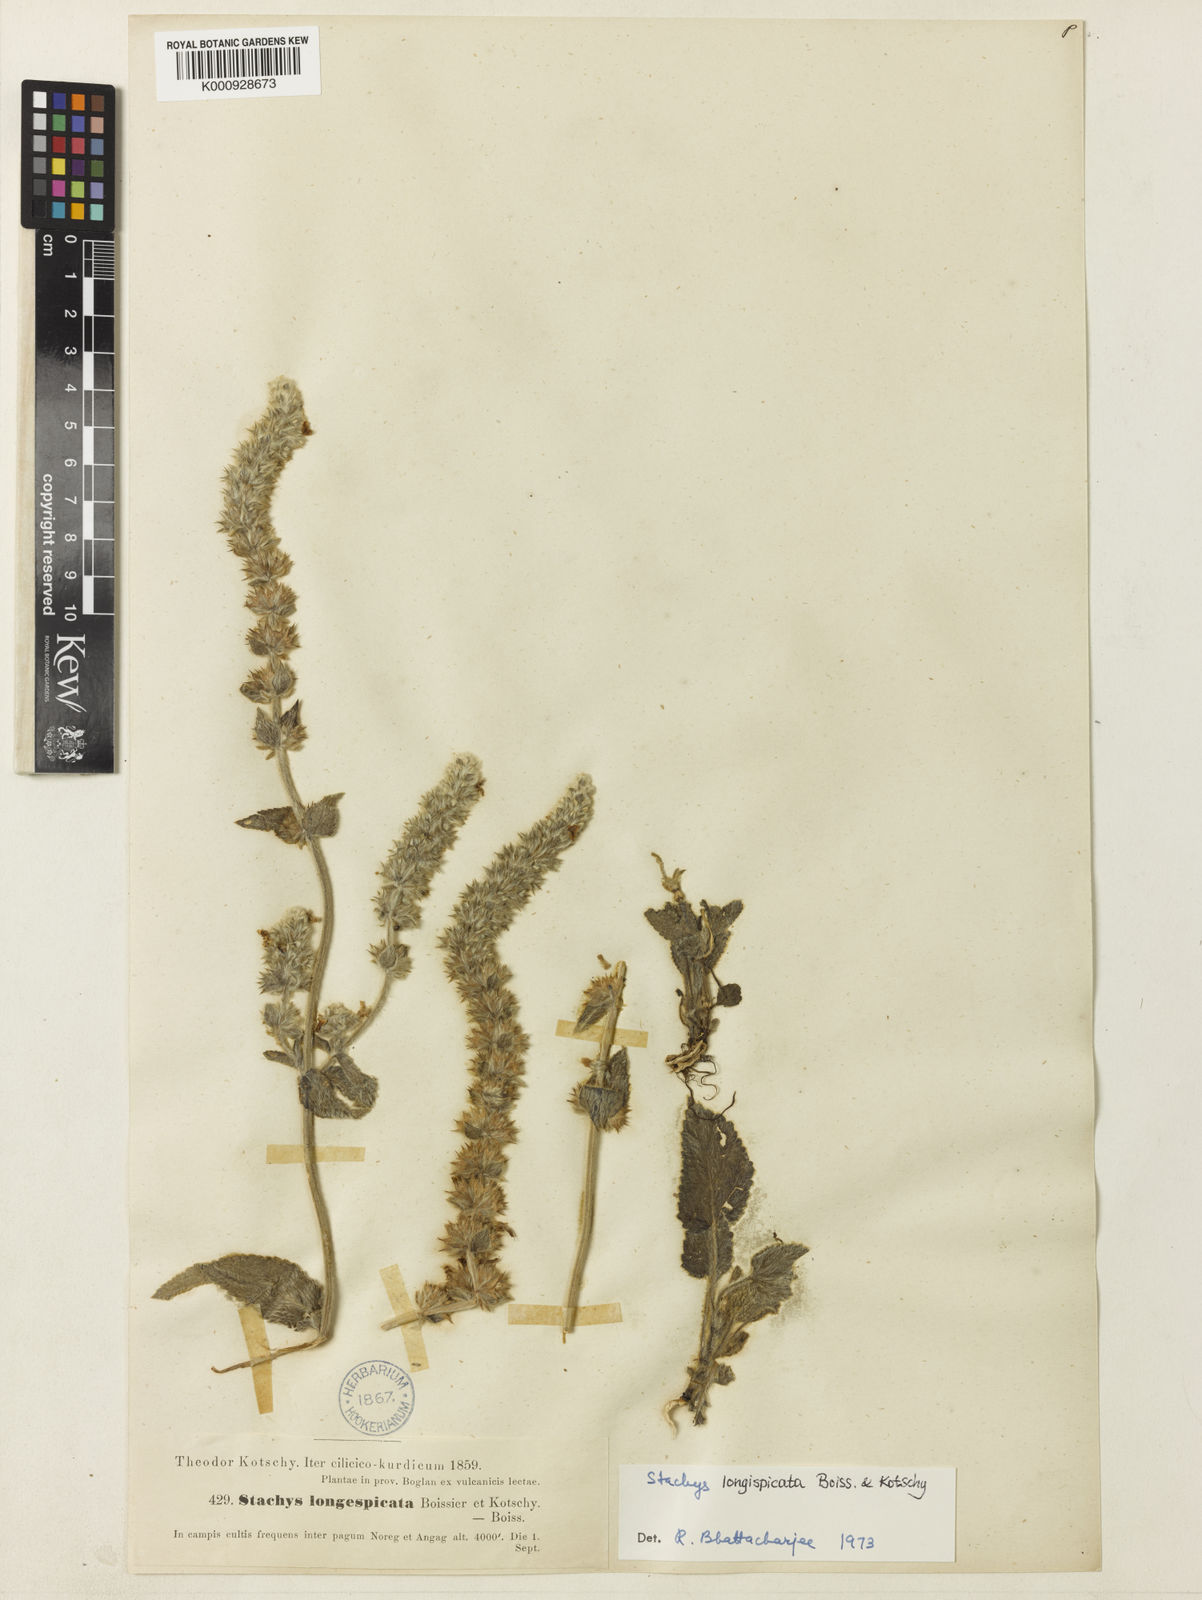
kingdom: Plantae
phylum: Tracheophyta
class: Magnoliopsida
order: Lamiales
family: Lamiaceae
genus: Stachys
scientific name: Stachys longispicata
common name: Longspike hedgenettle
